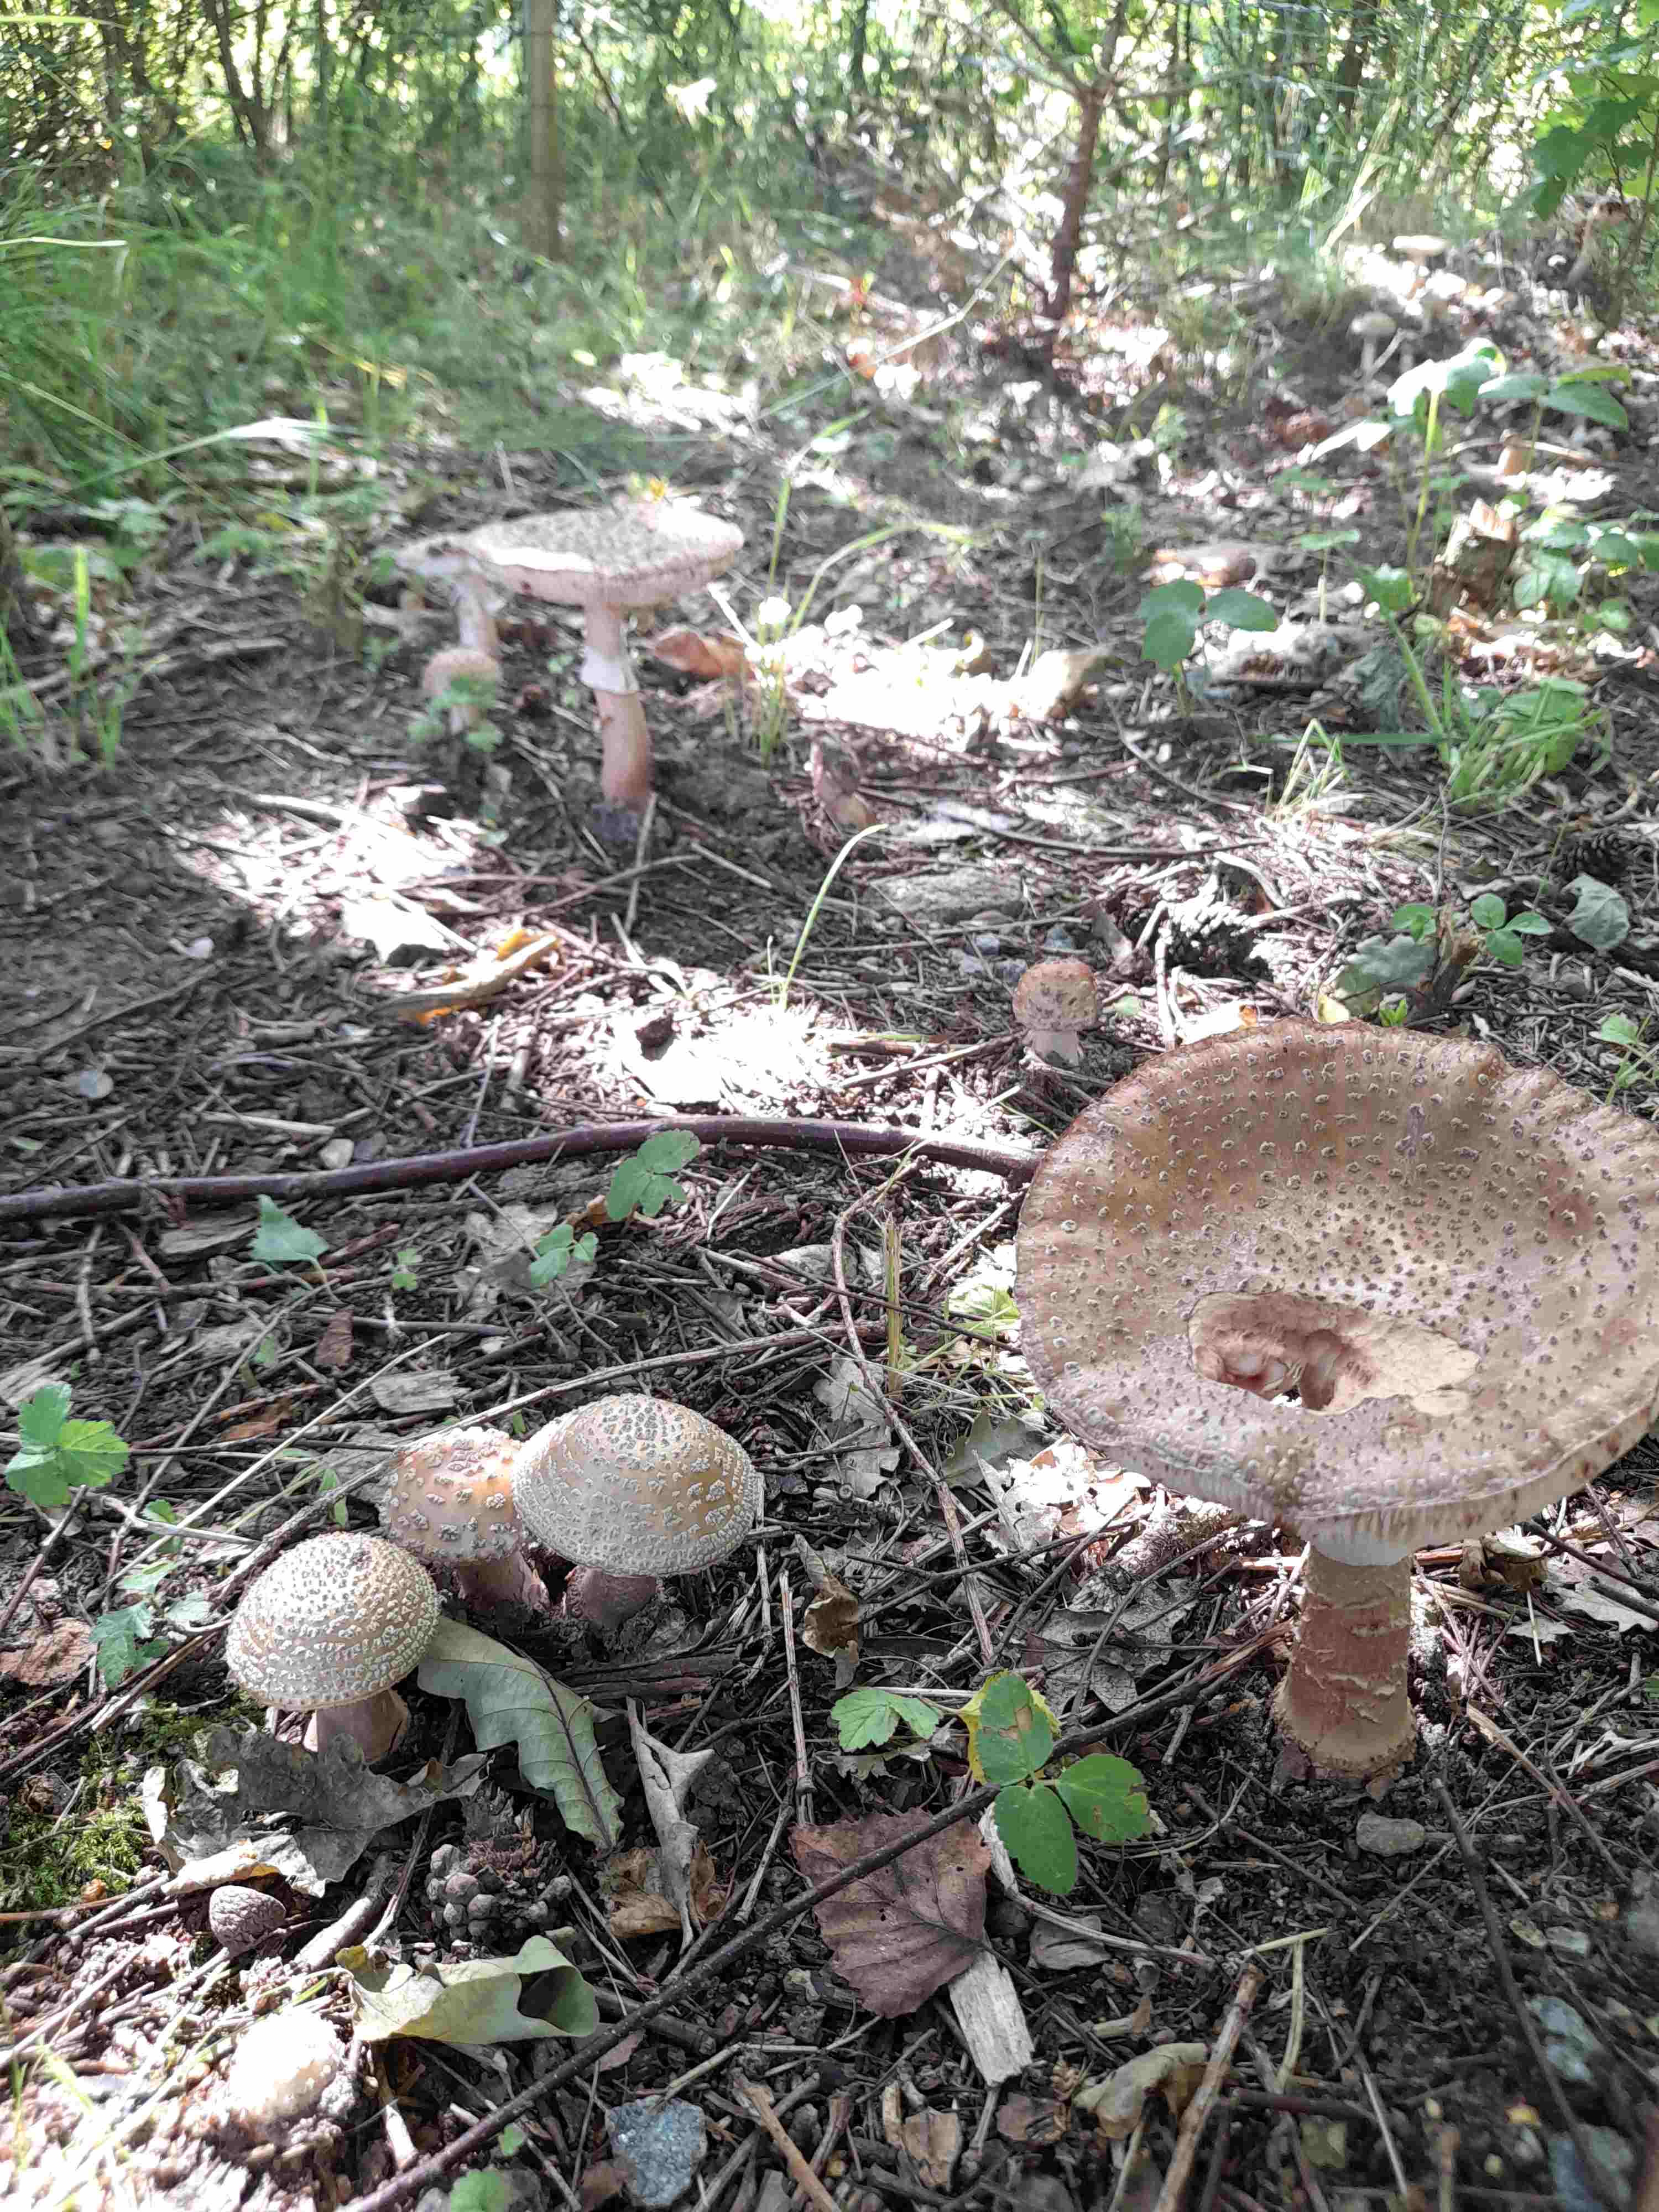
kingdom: Fungi
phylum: Basidiomycota
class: Agaricomycetes
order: Agaricales
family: Amanitaceae
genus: Amanita
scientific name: Amanita rubescens
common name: rødmende fluesvamp
